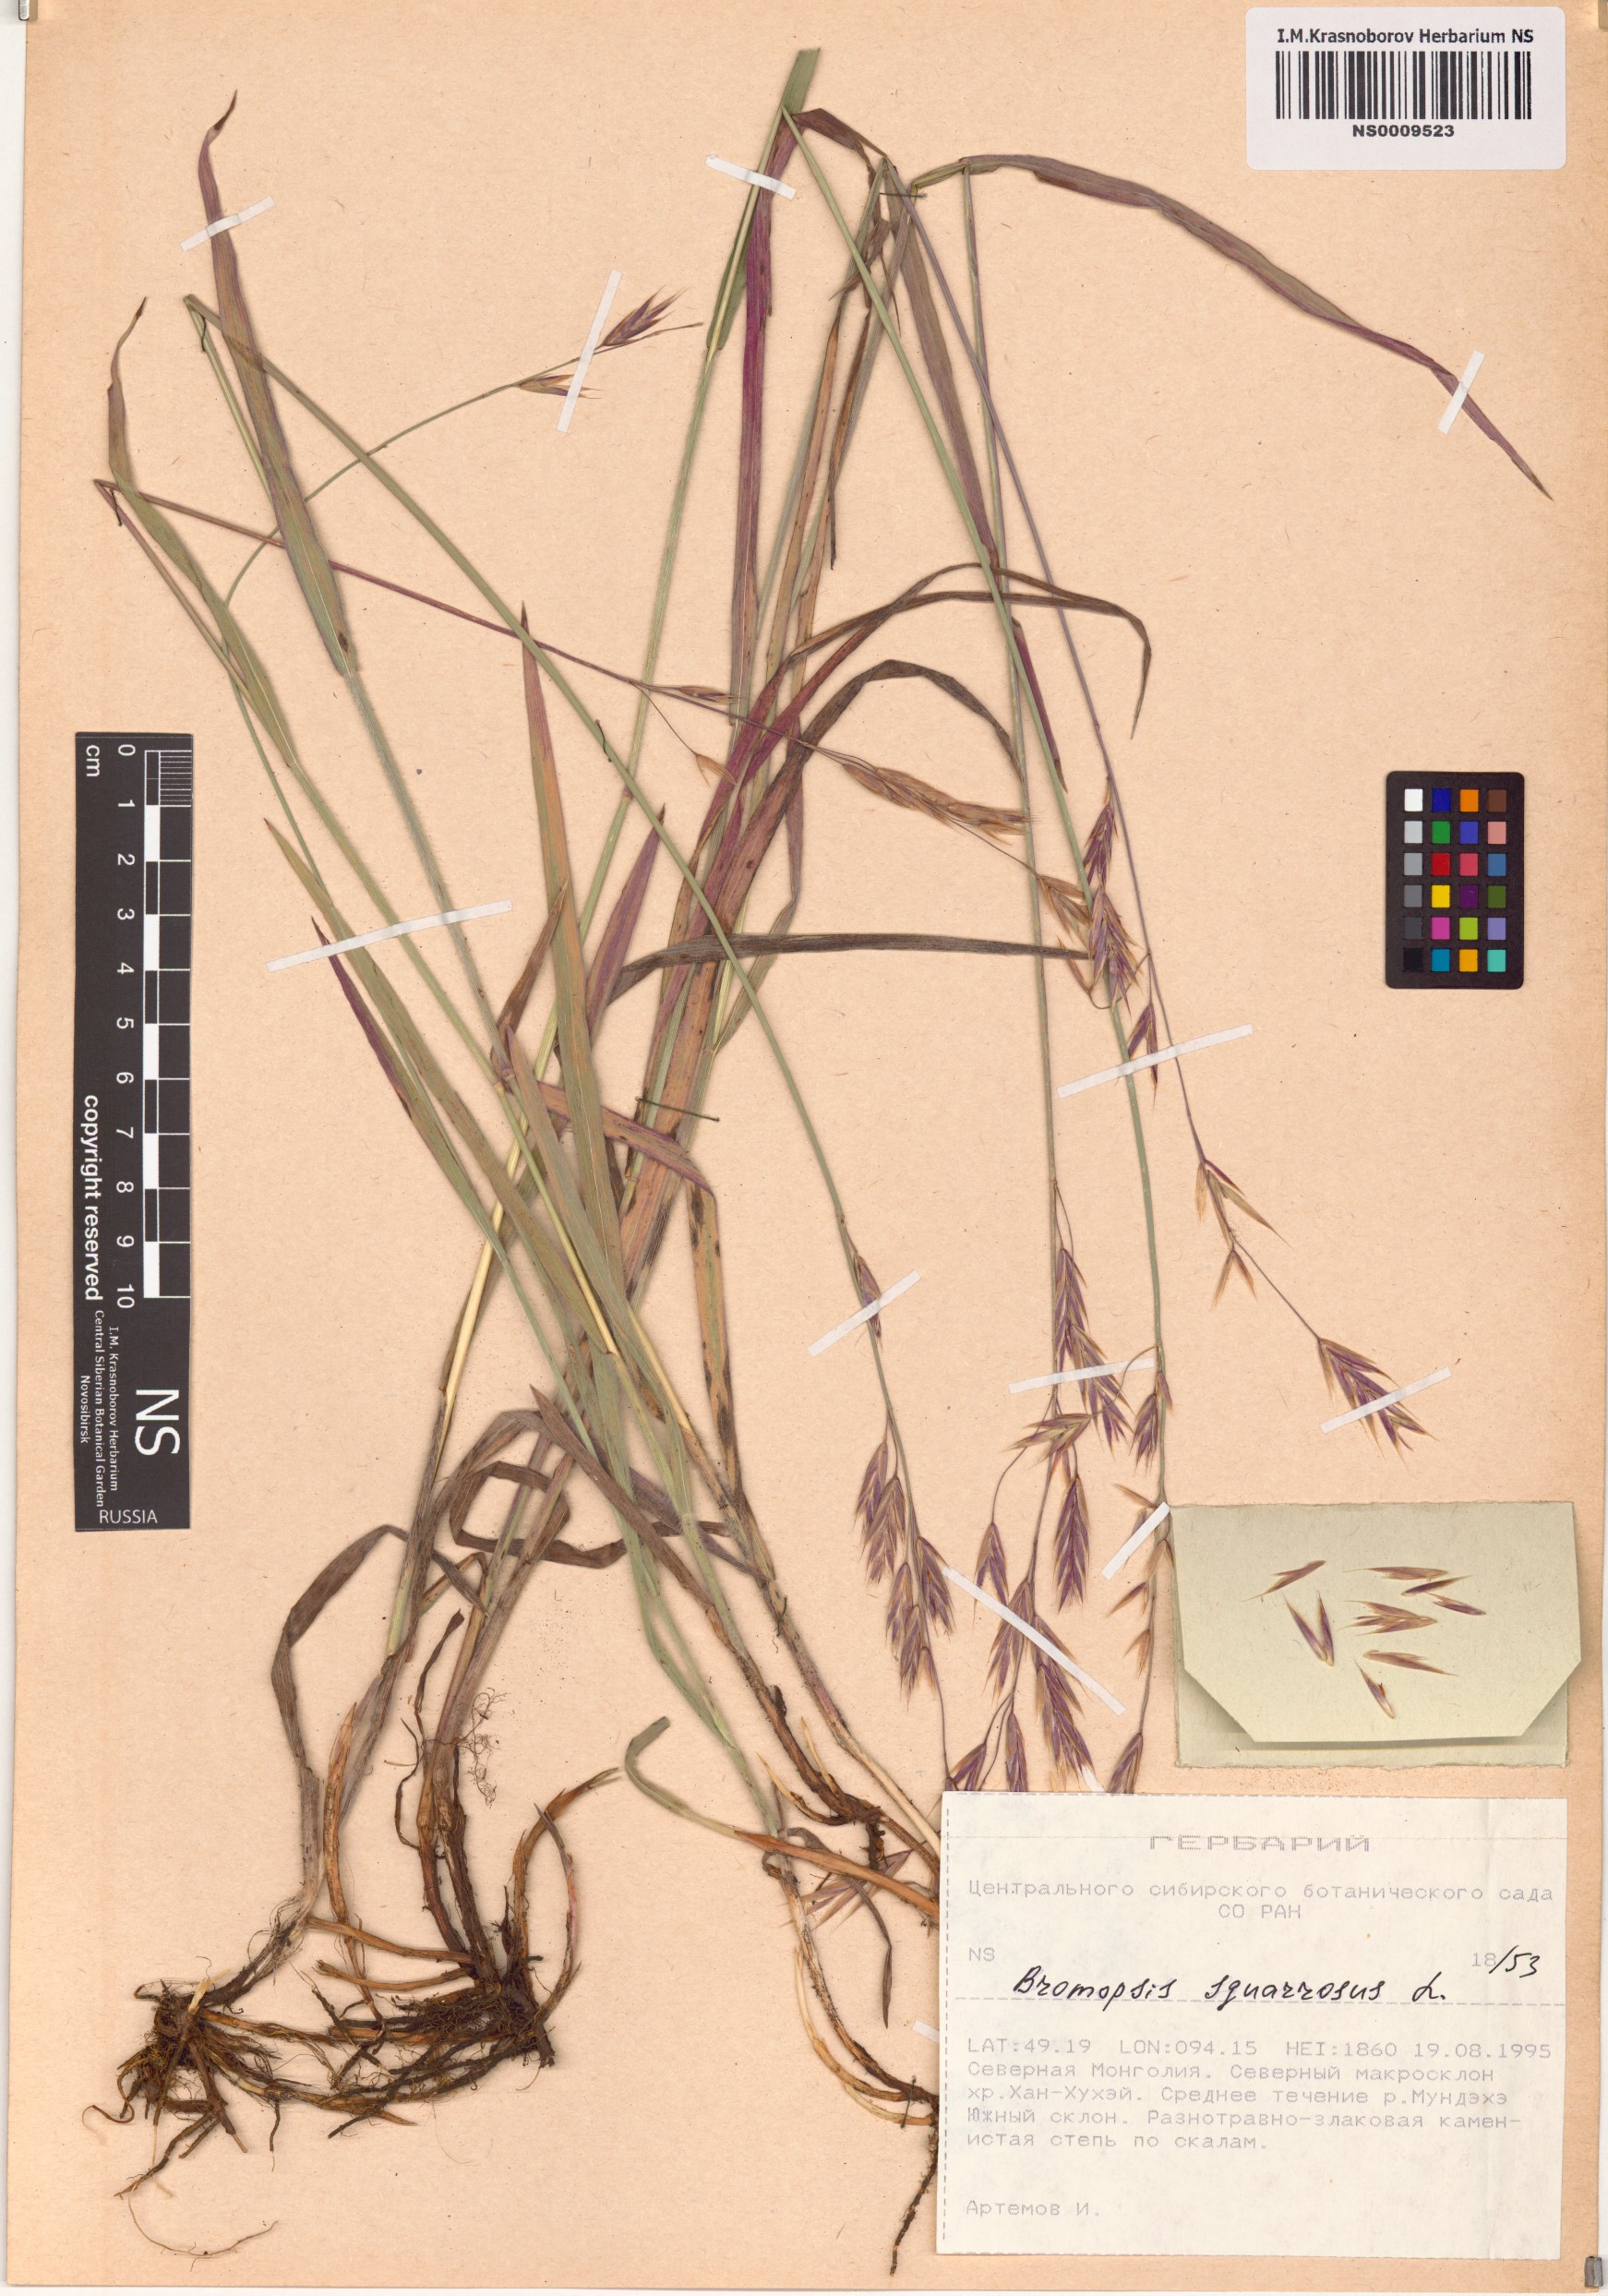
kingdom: Plantae
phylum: Tracheophyta
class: Liliopsida
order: Poales
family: Poaceae
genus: Bromus
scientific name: Bromus squarrosus
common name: Corn brome
